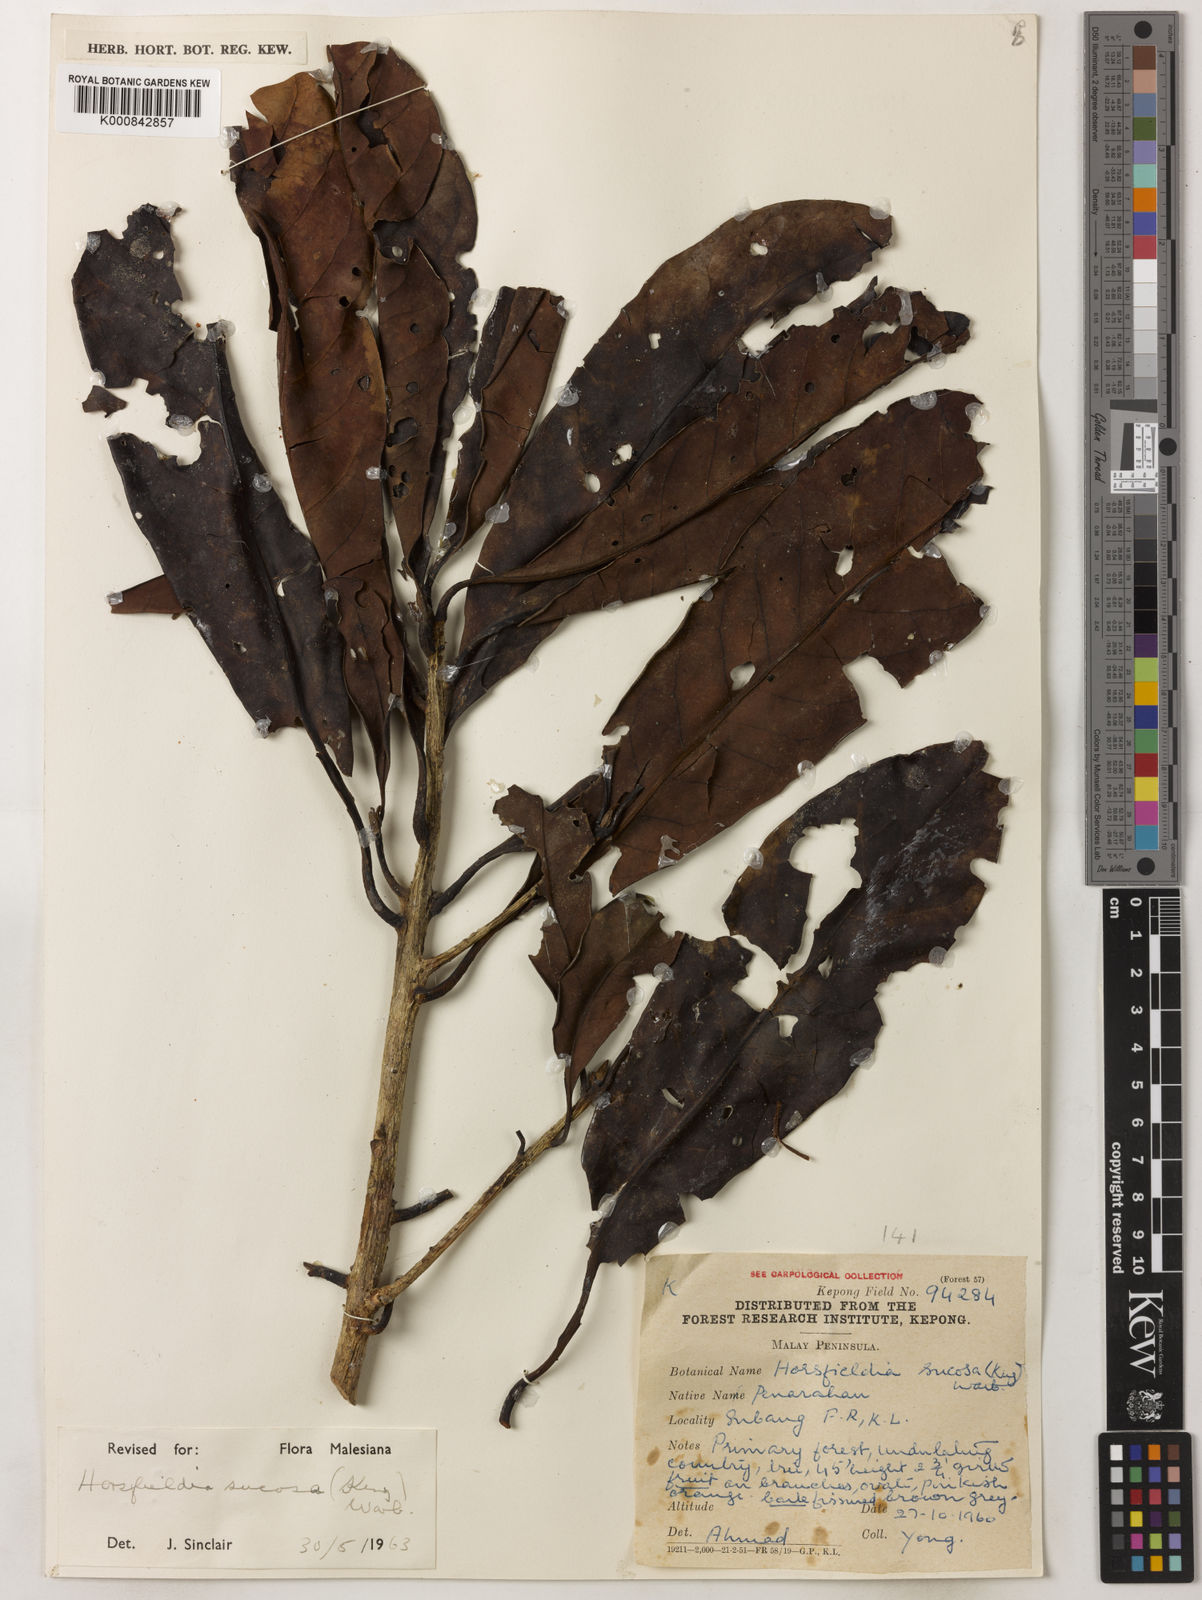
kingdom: Plantae
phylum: Tracheophyta
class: Magnoliopsida
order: Magnoliales
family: Myristicaceae
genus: Horsfieldia
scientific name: Horsfieldia sucosa
